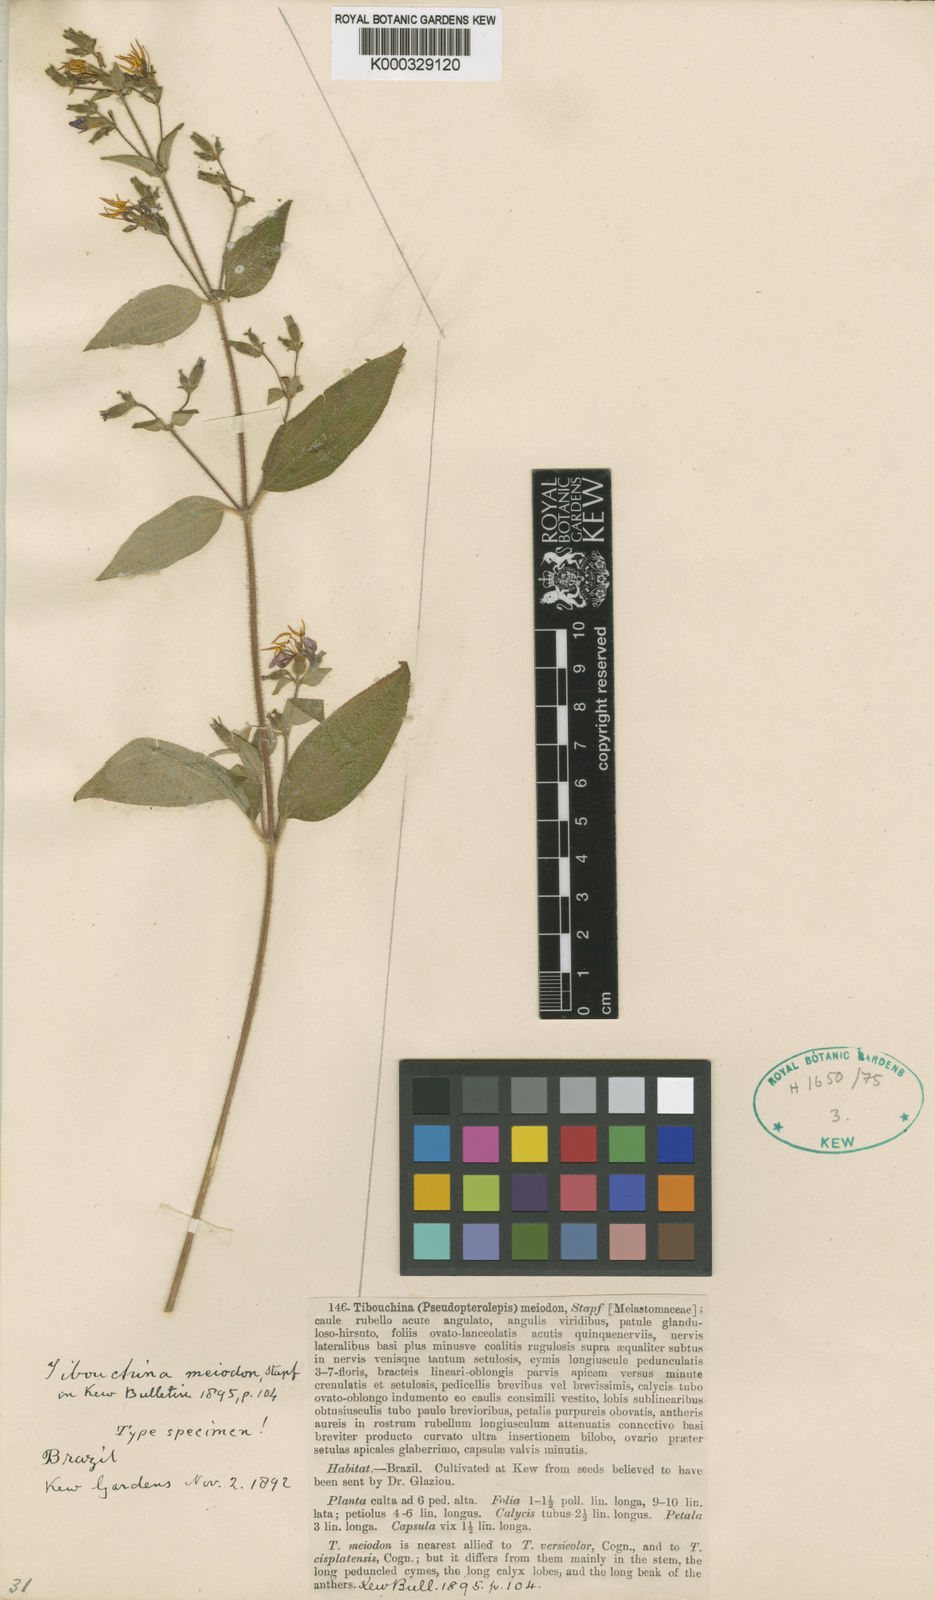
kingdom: Plantae
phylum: Tracheophyta
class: Magnoliopsida
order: Myrtales
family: Melastomataceae
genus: Chaetogastra
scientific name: Chaetogastra versicolor
